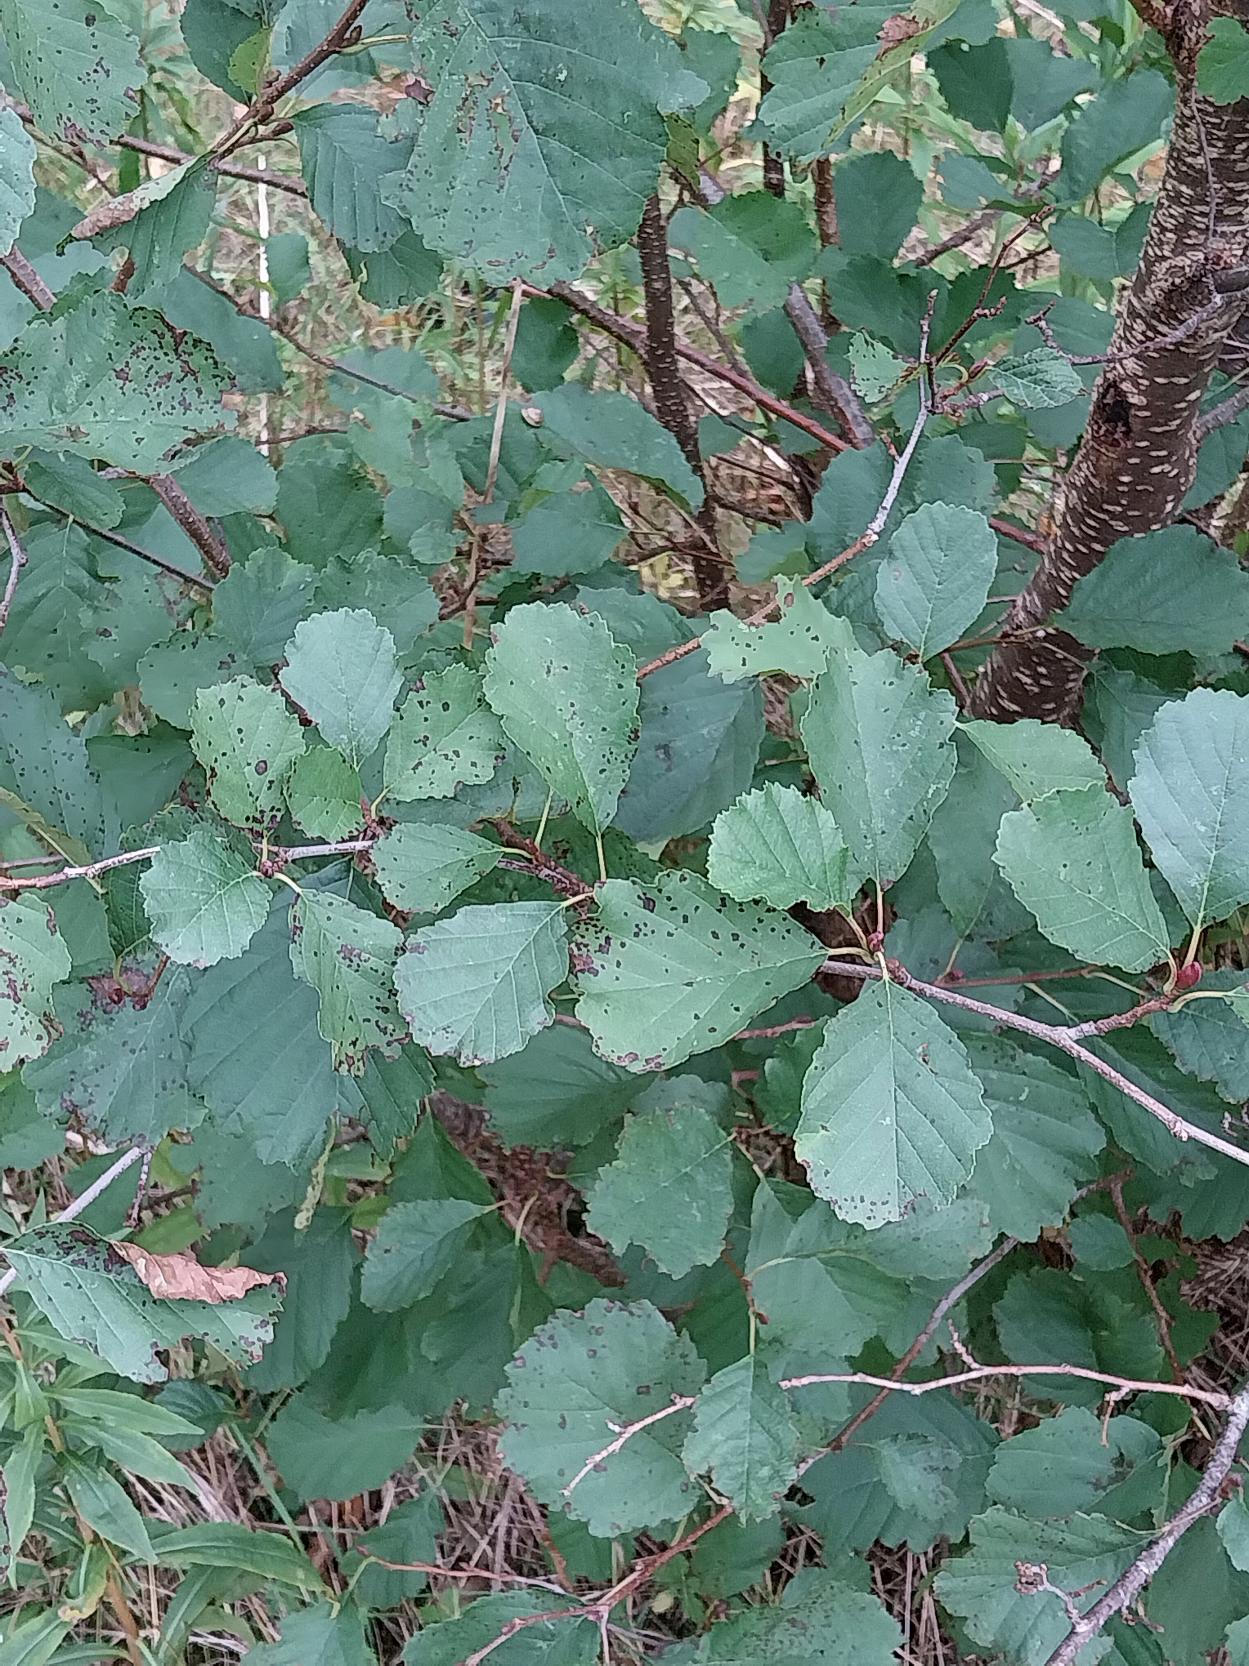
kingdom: Plantae
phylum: Tracheophyta
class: Magnoliopsida
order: Fagales
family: Betulaceae
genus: Alnus
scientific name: Alnus glutinosa
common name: Rød-el
